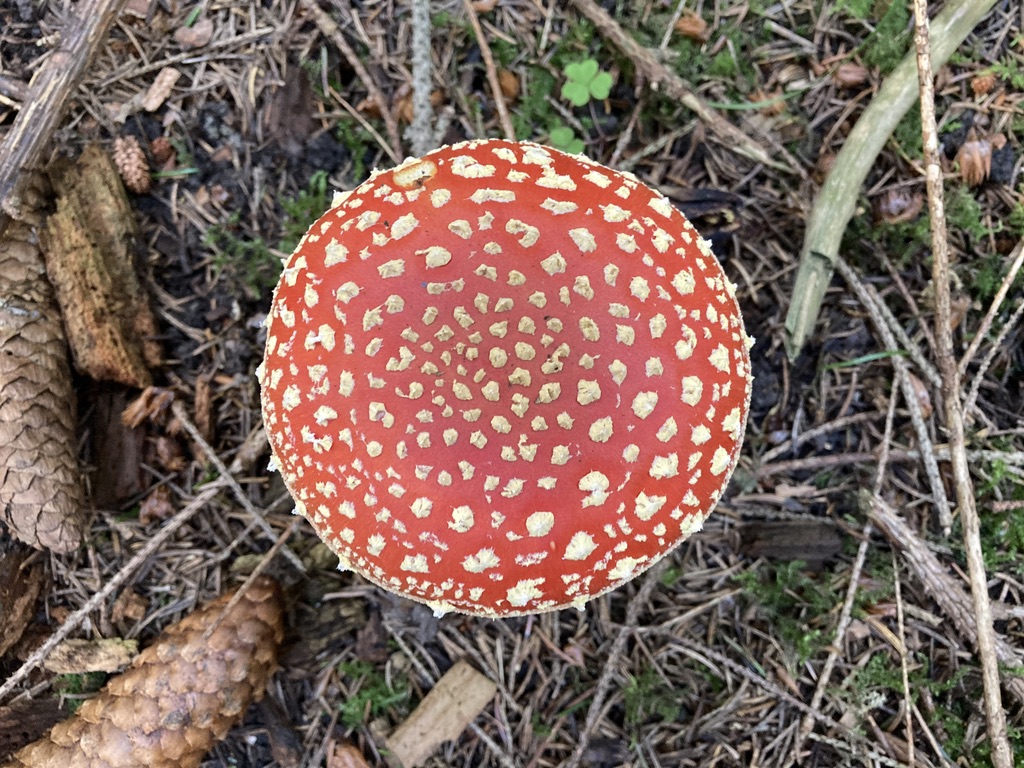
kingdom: Fungi
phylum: Basidiomycota
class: Agaricomycetes
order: Agaricales
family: Amanitaceae
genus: Amanita
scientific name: Amanita muscaria
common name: rød fluesvamp
